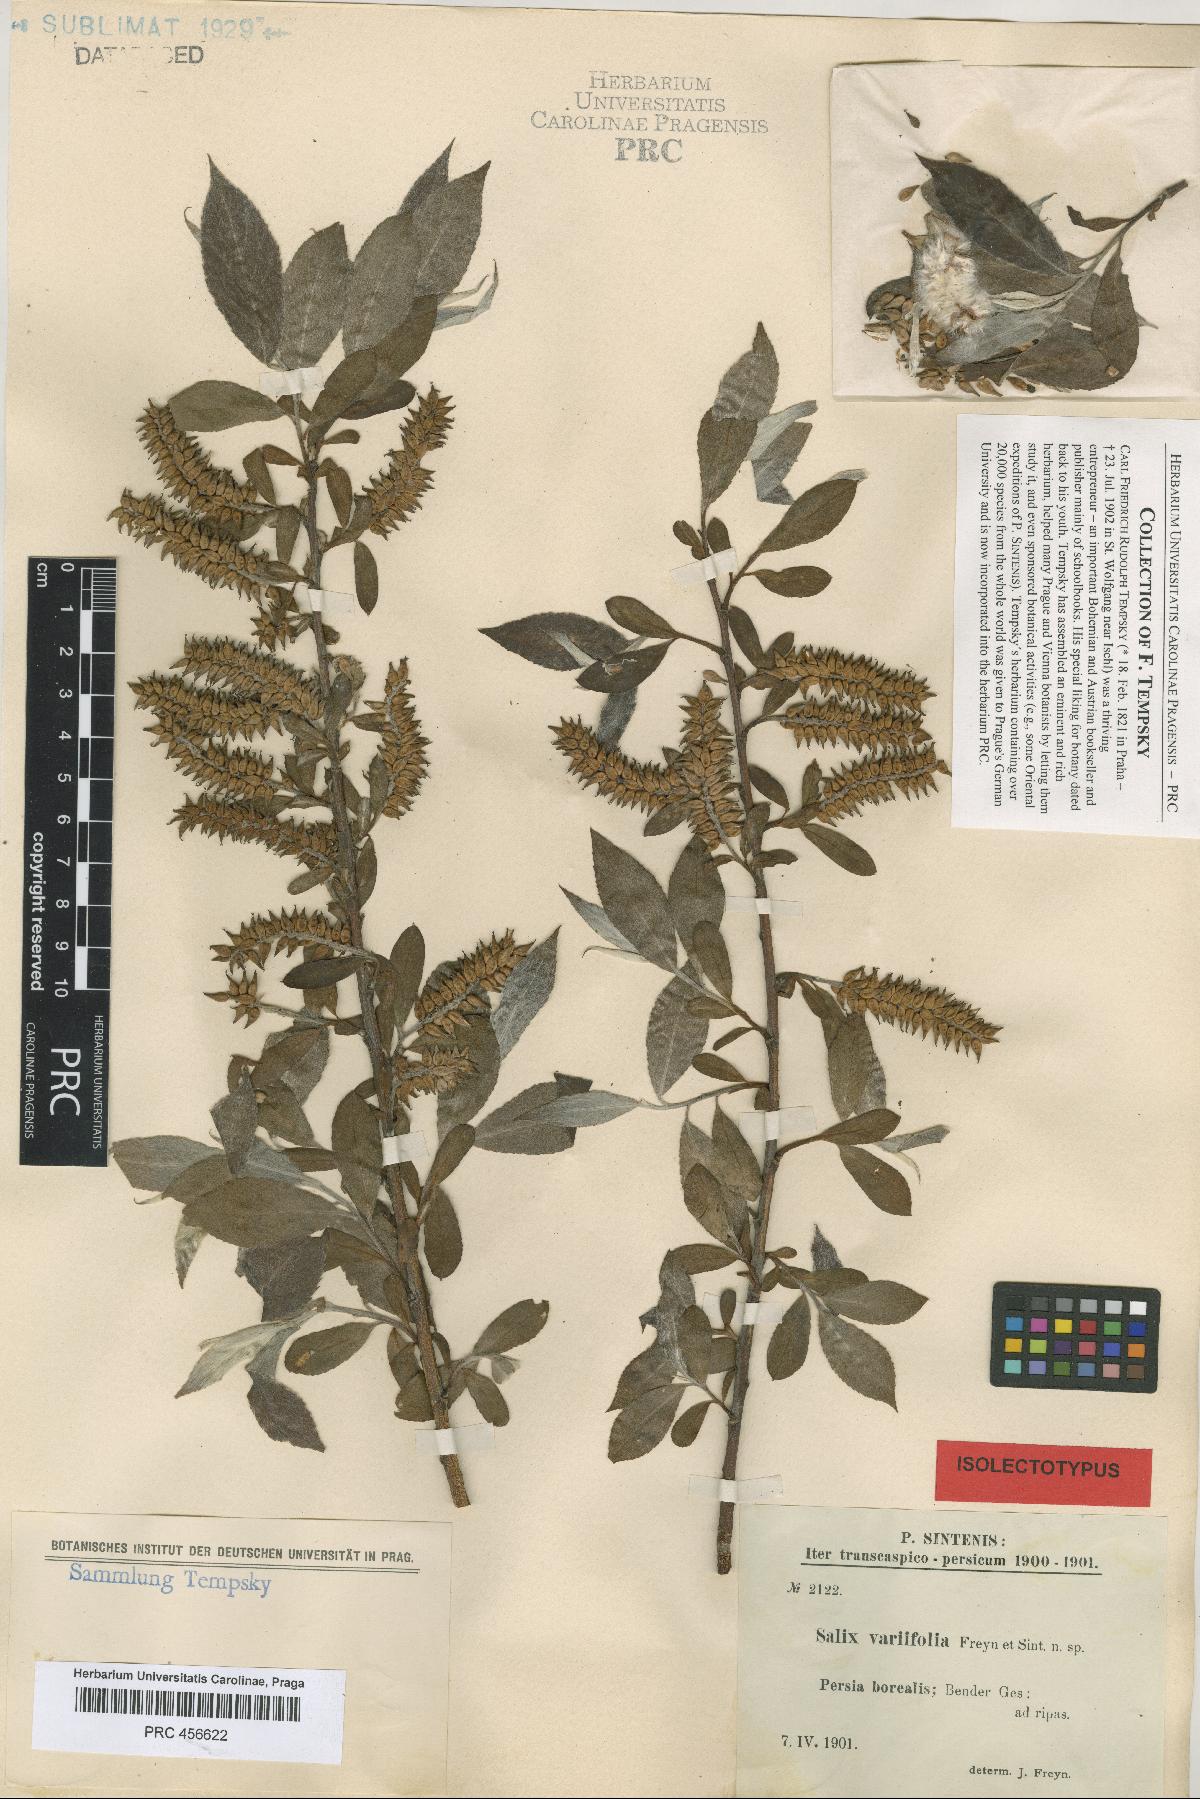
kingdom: Plantae
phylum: Tracheophyta
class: Magnoliopsida
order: Malpighiales
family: Salicaceae
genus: Salix
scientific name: Salix excelsa
